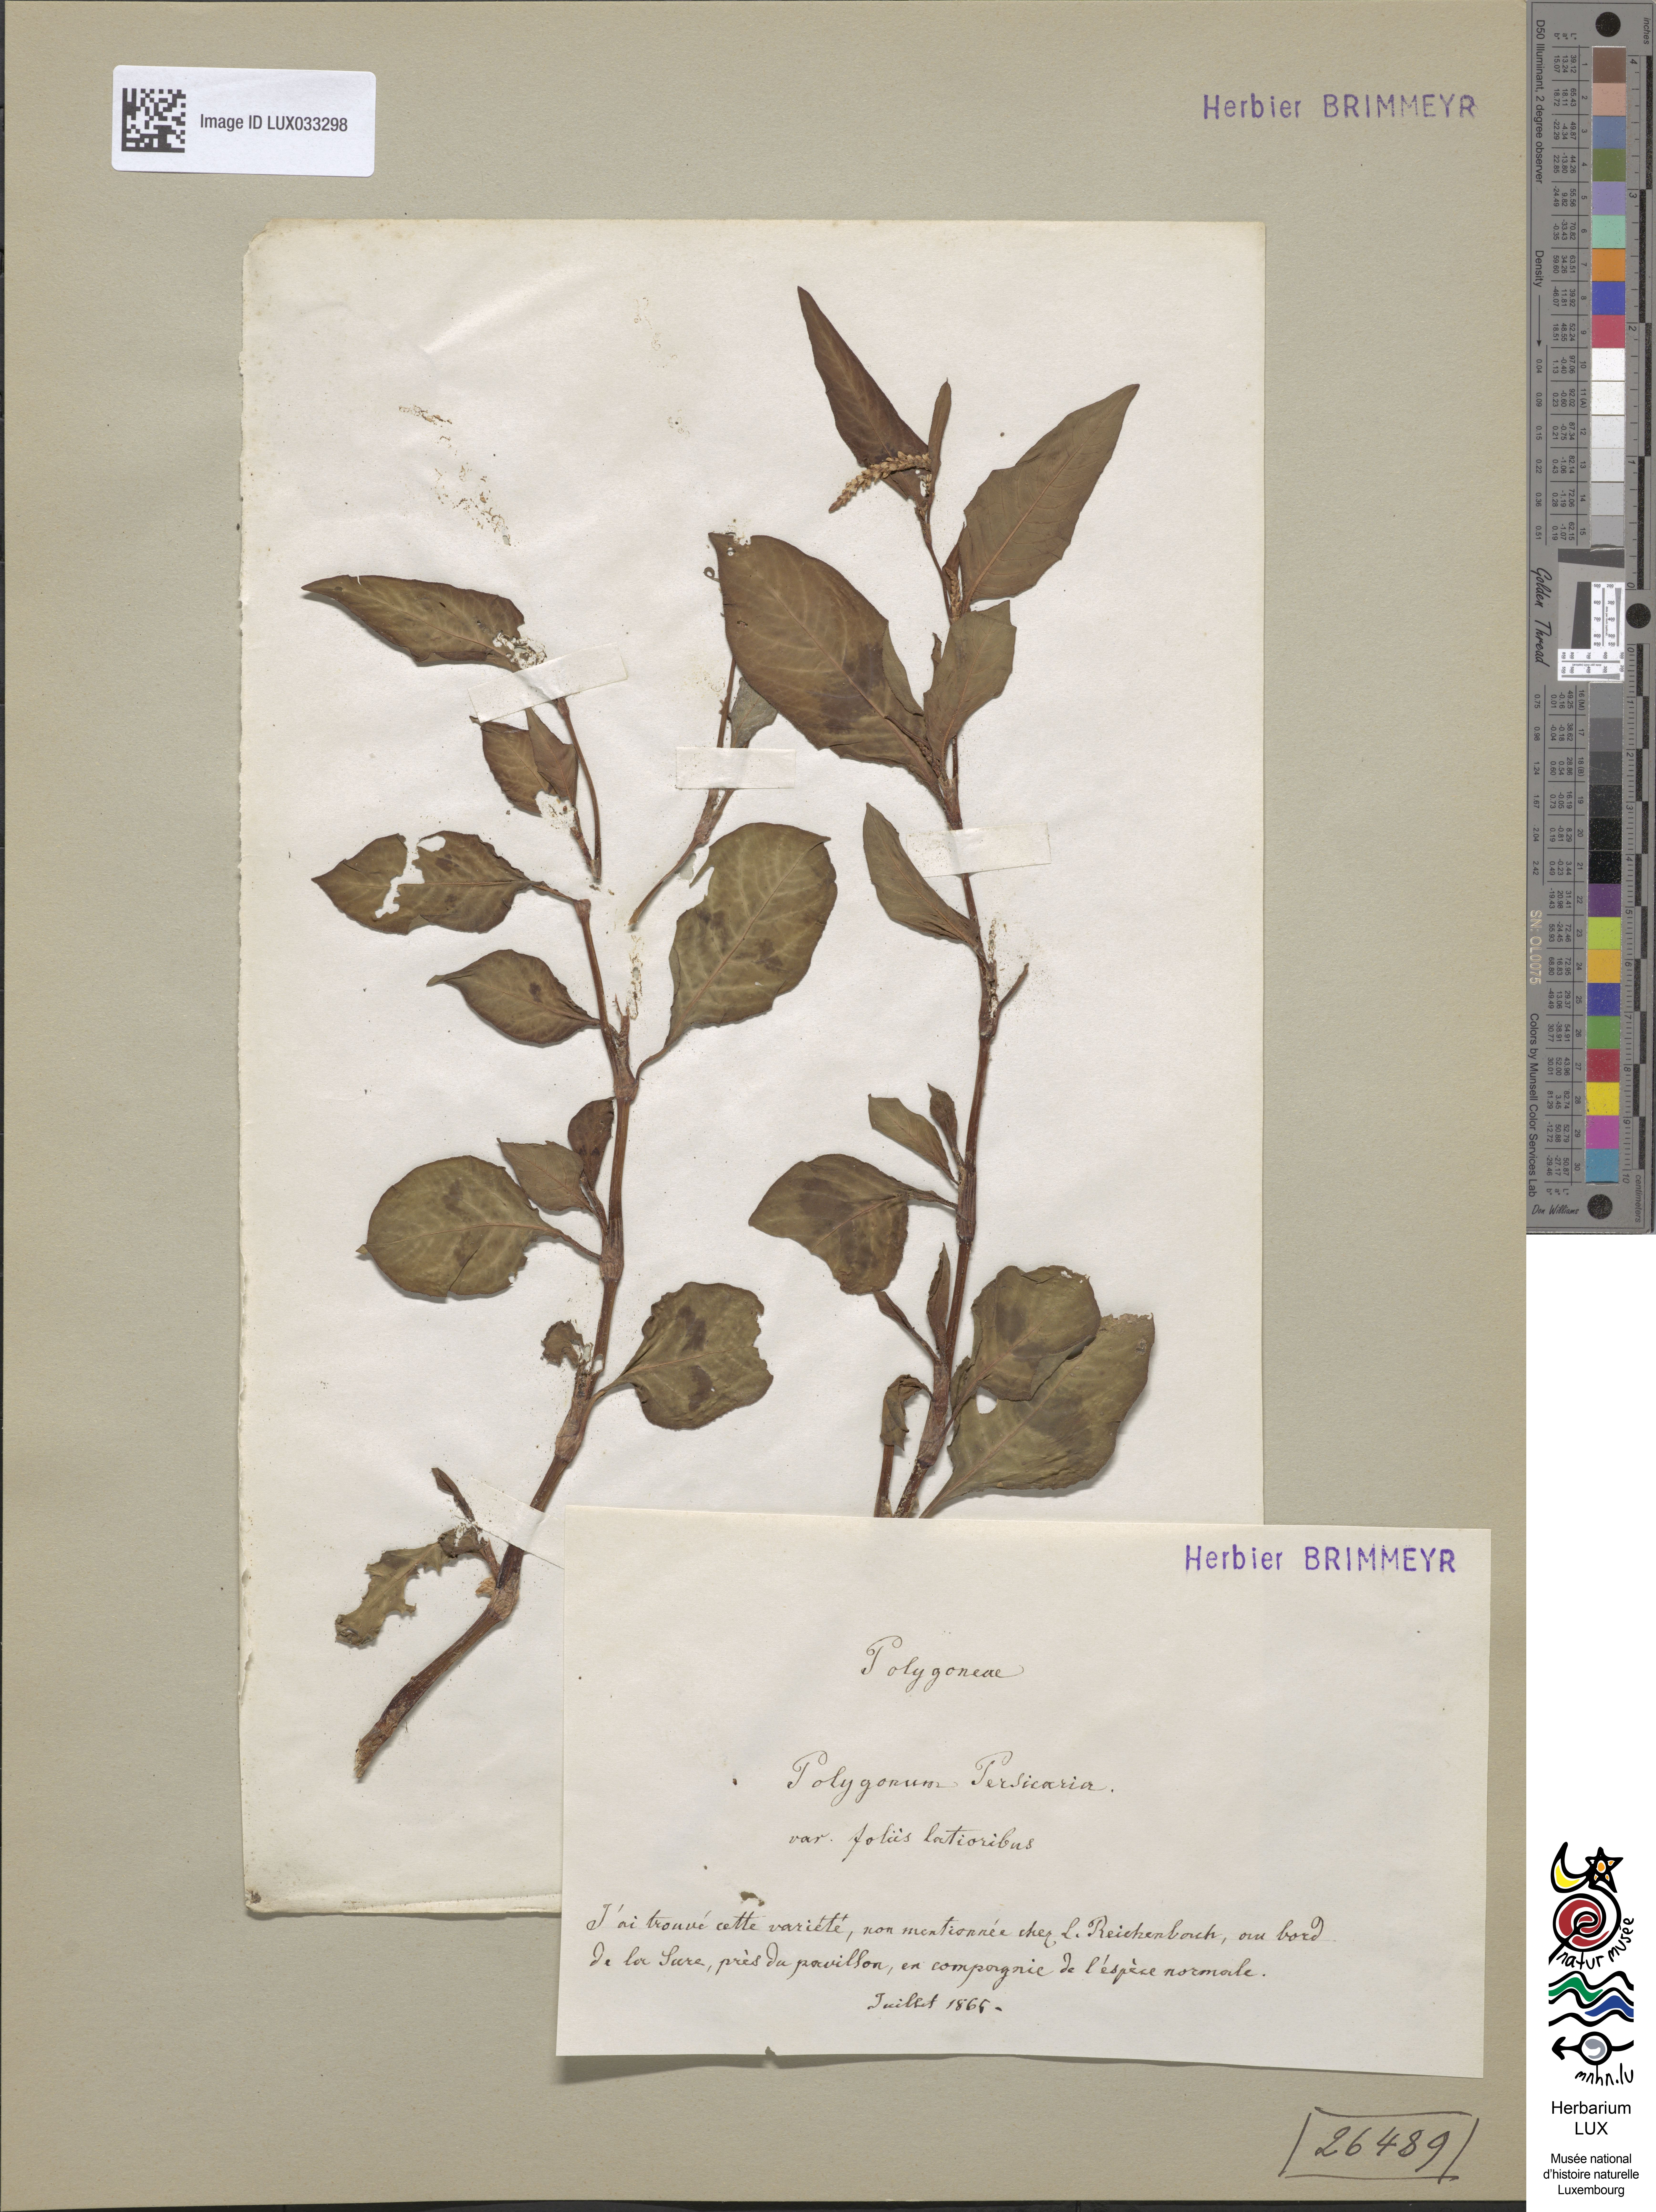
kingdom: Plantae
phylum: Tracheophyta
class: Magnoliopsida
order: Caryophyllales
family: Polygonaceae
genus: Persicaria
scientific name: Persicaria maculosa
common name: Redshank
